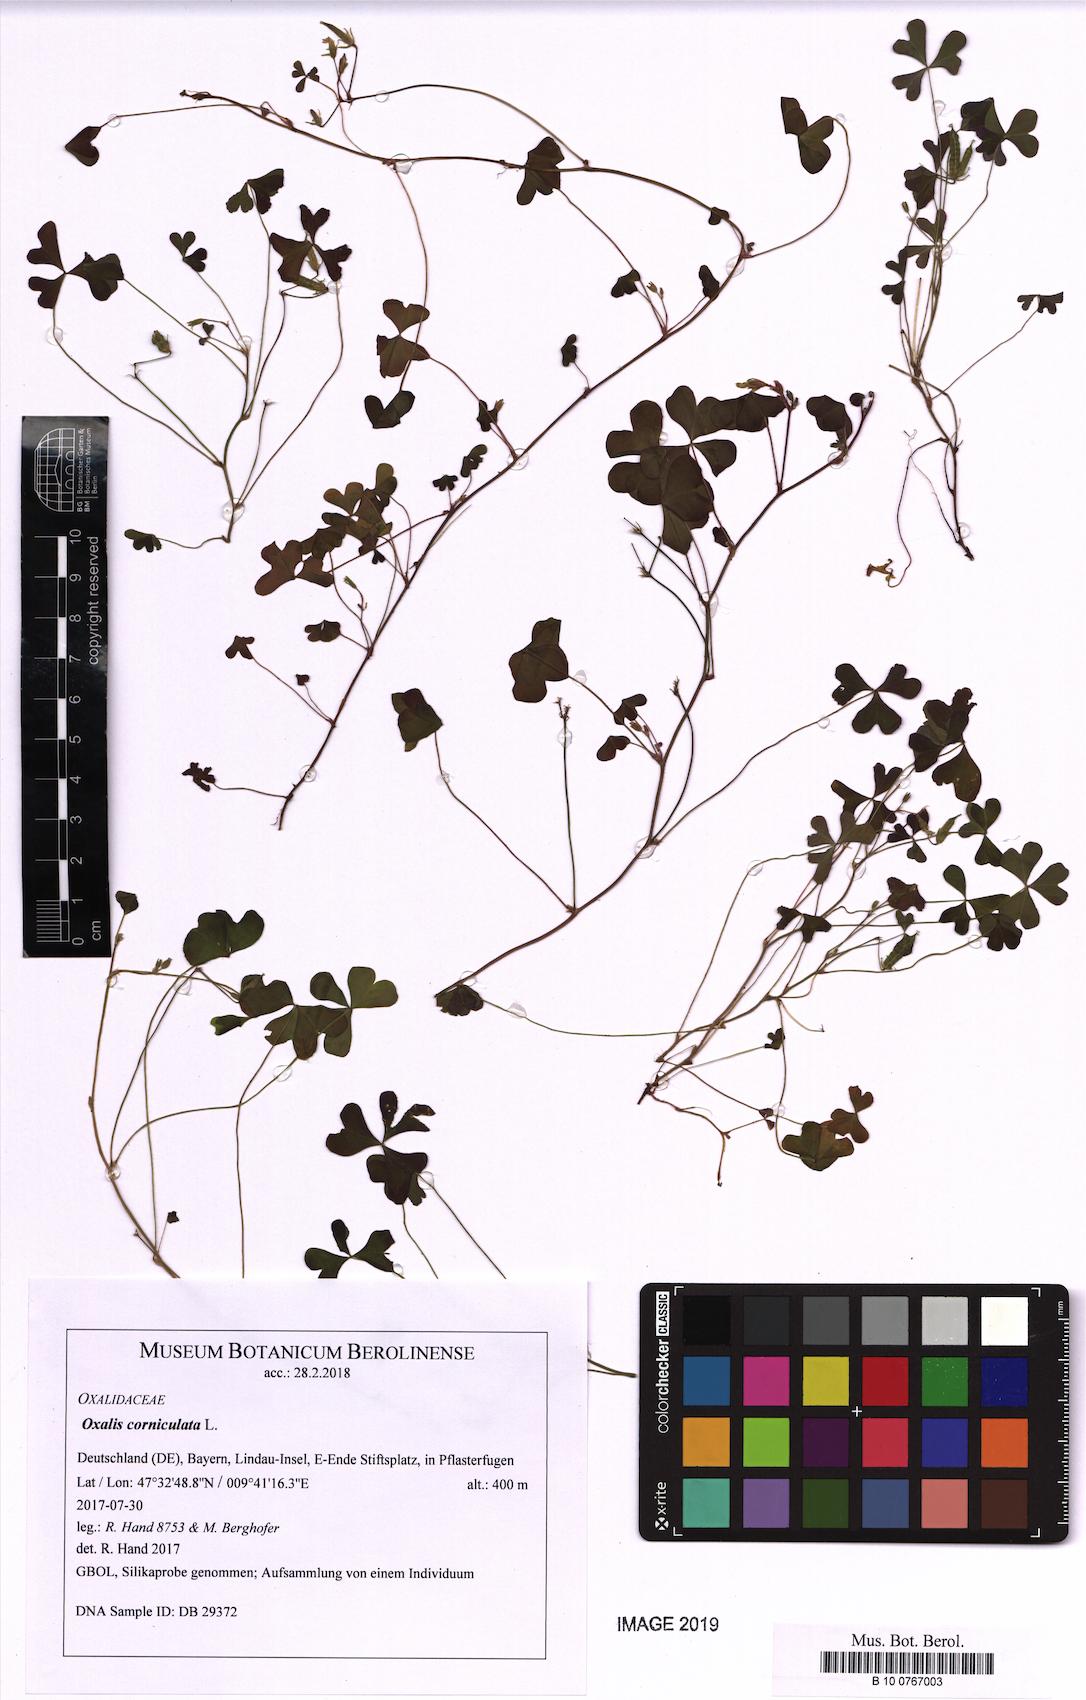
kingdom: Plantae
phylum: Tracheophyta
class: Magnoliopsida
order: Oxalidales
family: Oxalidaceae
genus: Oxalis
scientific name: Oxalis corniculata
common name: Procumbent yellow-sorrel
